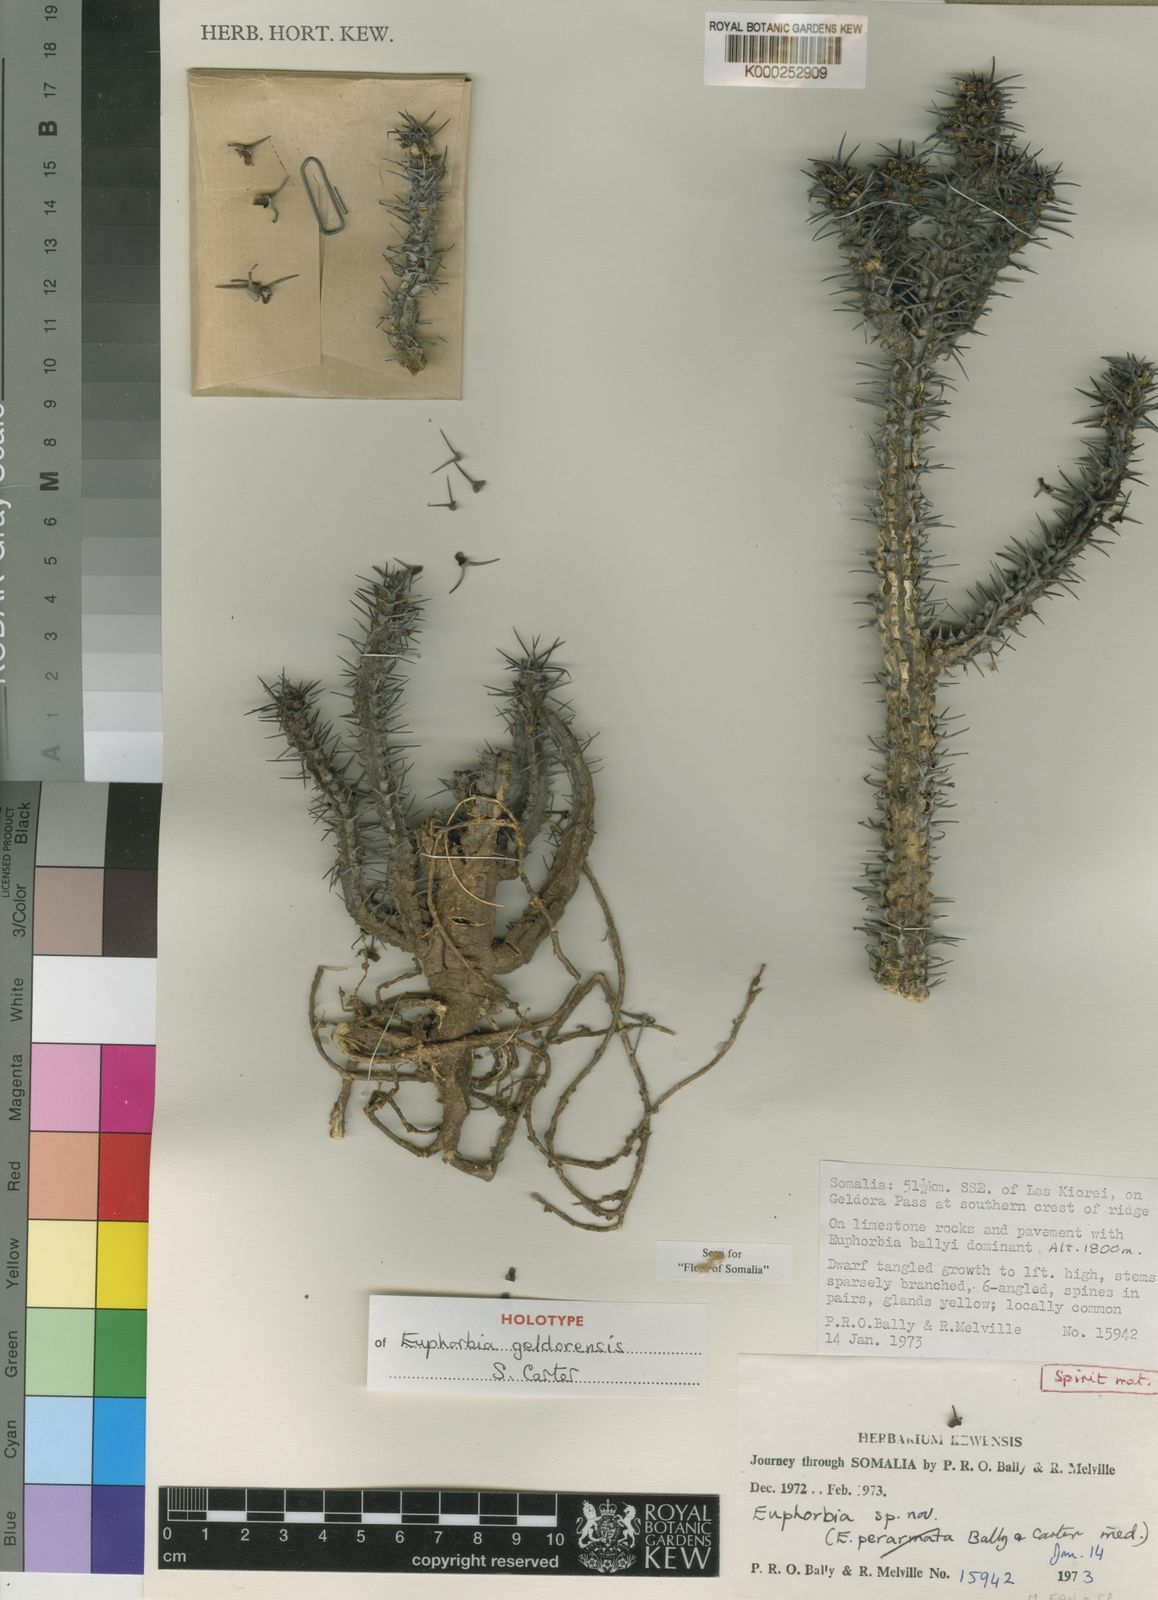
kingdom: Plantae
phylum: Tracheophyta
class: Magnoliopsida
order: Malpighiales
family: Euphorbiaceae
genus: Euphorbia
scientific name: Euphorbia geldorensis
